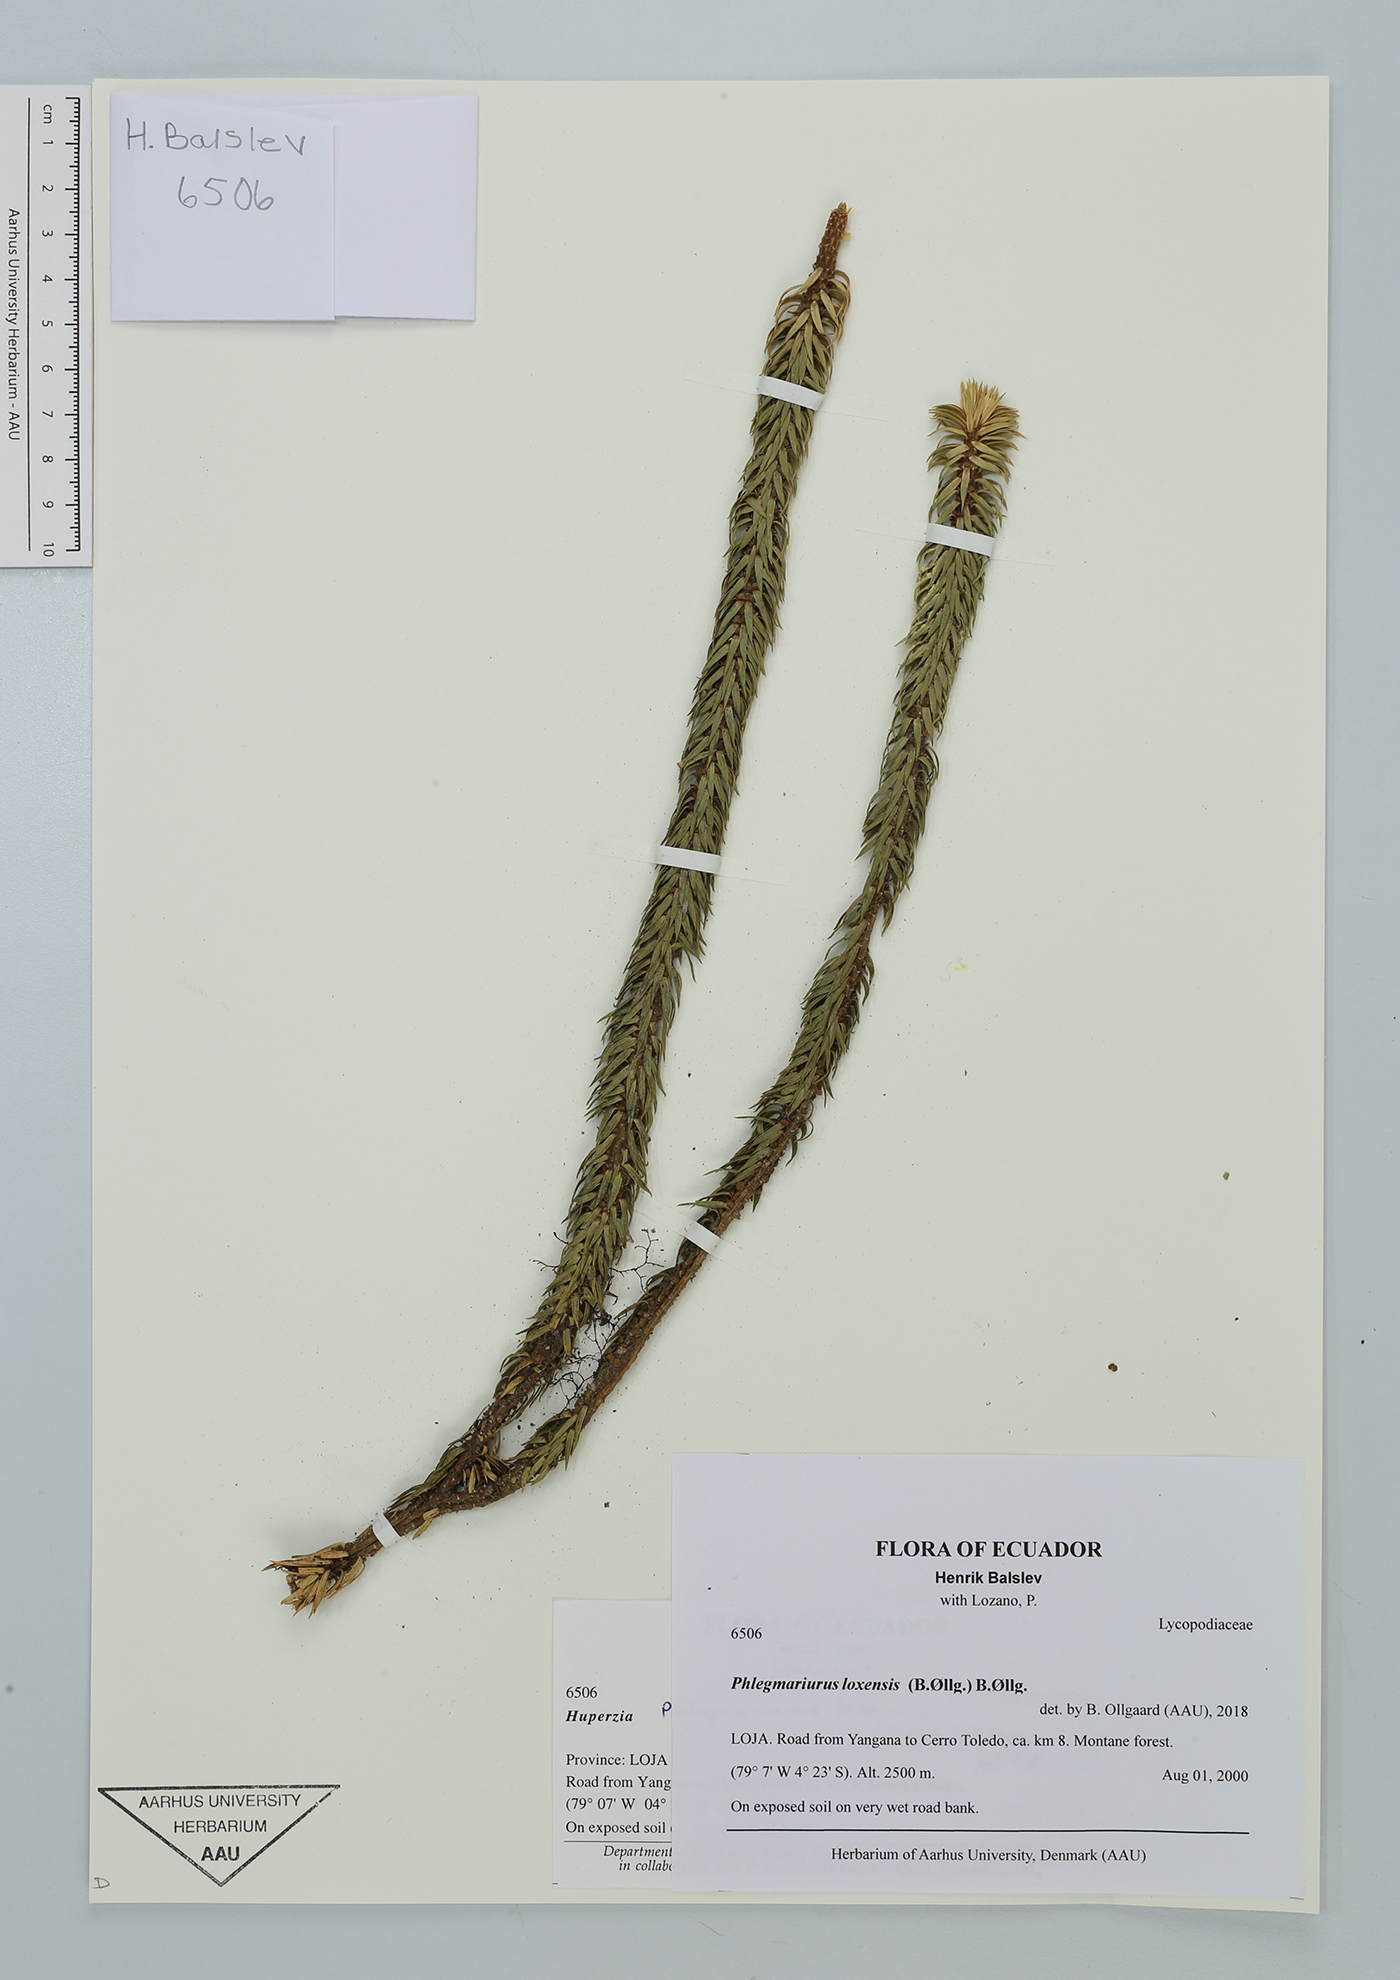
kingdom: Plantae
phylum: Tracheophyta
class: Lycopodiopsida
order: Lycopodiales
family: Lycopodiaceae
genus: Phlegmariurus
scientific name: Phlegmariurus loxensis
